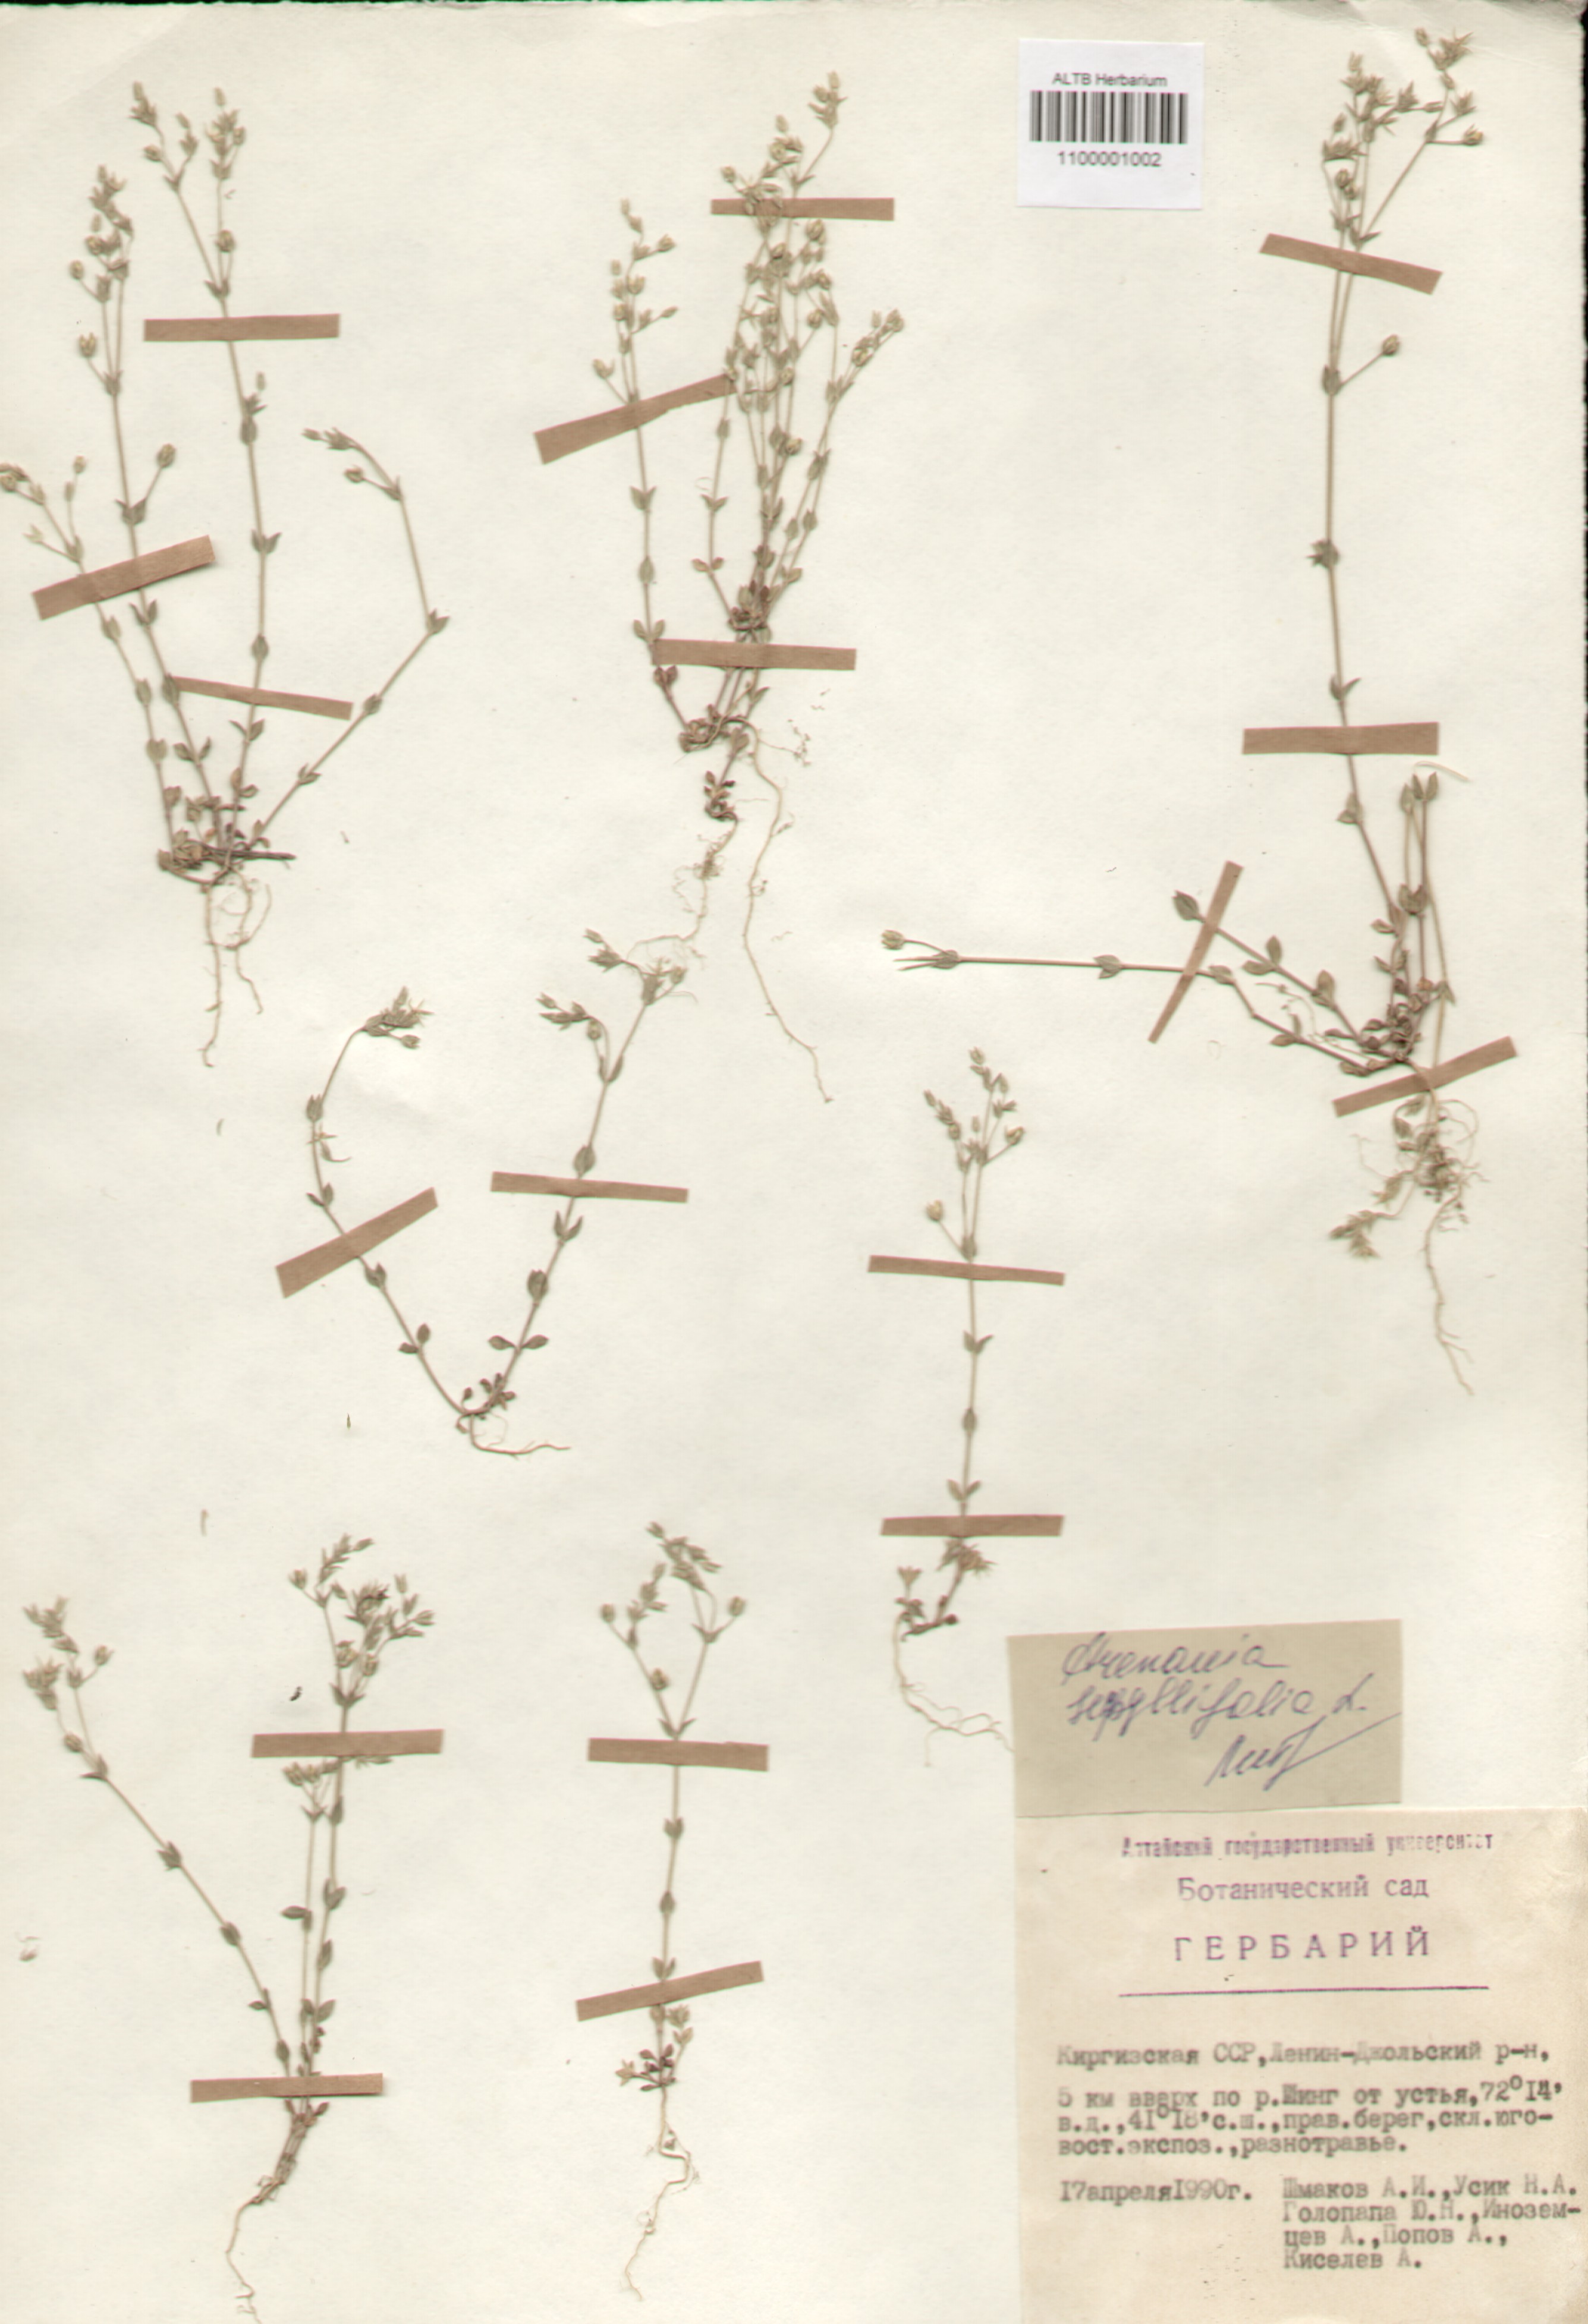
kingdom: Plantae
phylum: Tracheophyta
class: Magnoliopsida
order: Caryophyllales
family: Caryophyllaceae
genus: Arenaria
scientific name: Arenaria serpyllifolia
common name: Thyme-leaved sandwort
